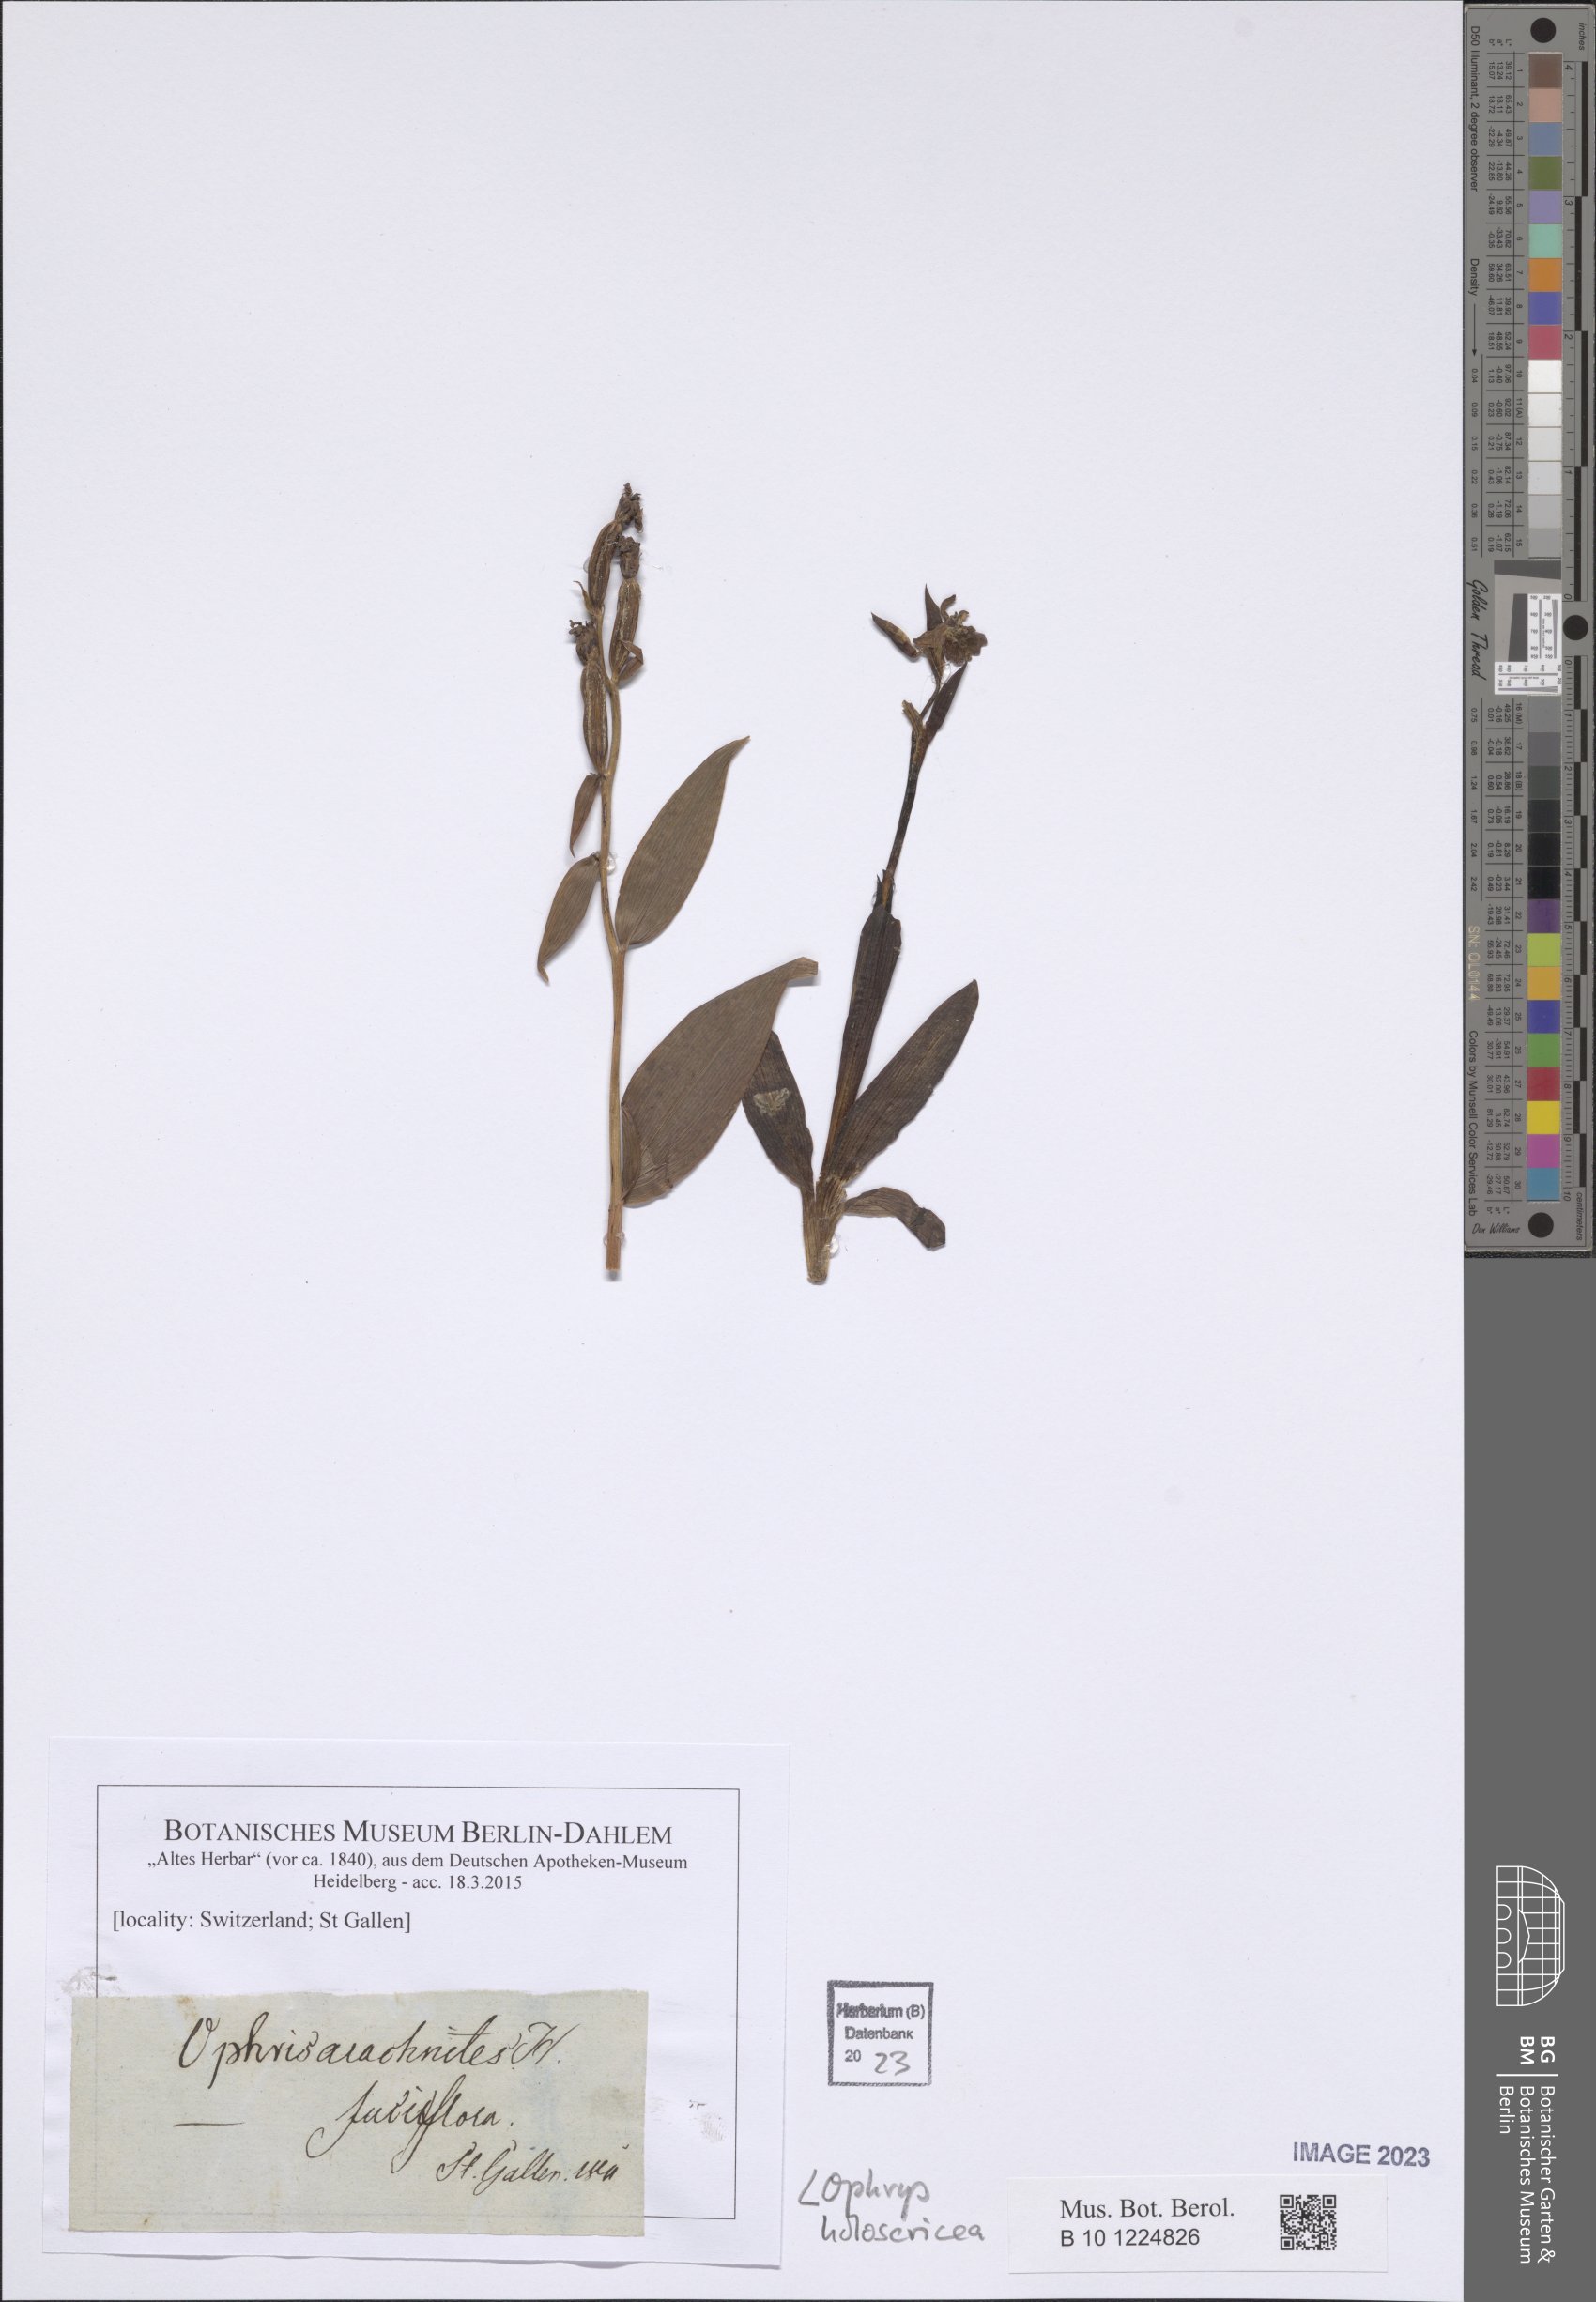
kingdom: Plantae
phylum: Tracheophyta
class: Liliopsida
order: Asparagales
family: Orchidaceae
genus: Ophrys
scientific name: Ophrys holosericea
